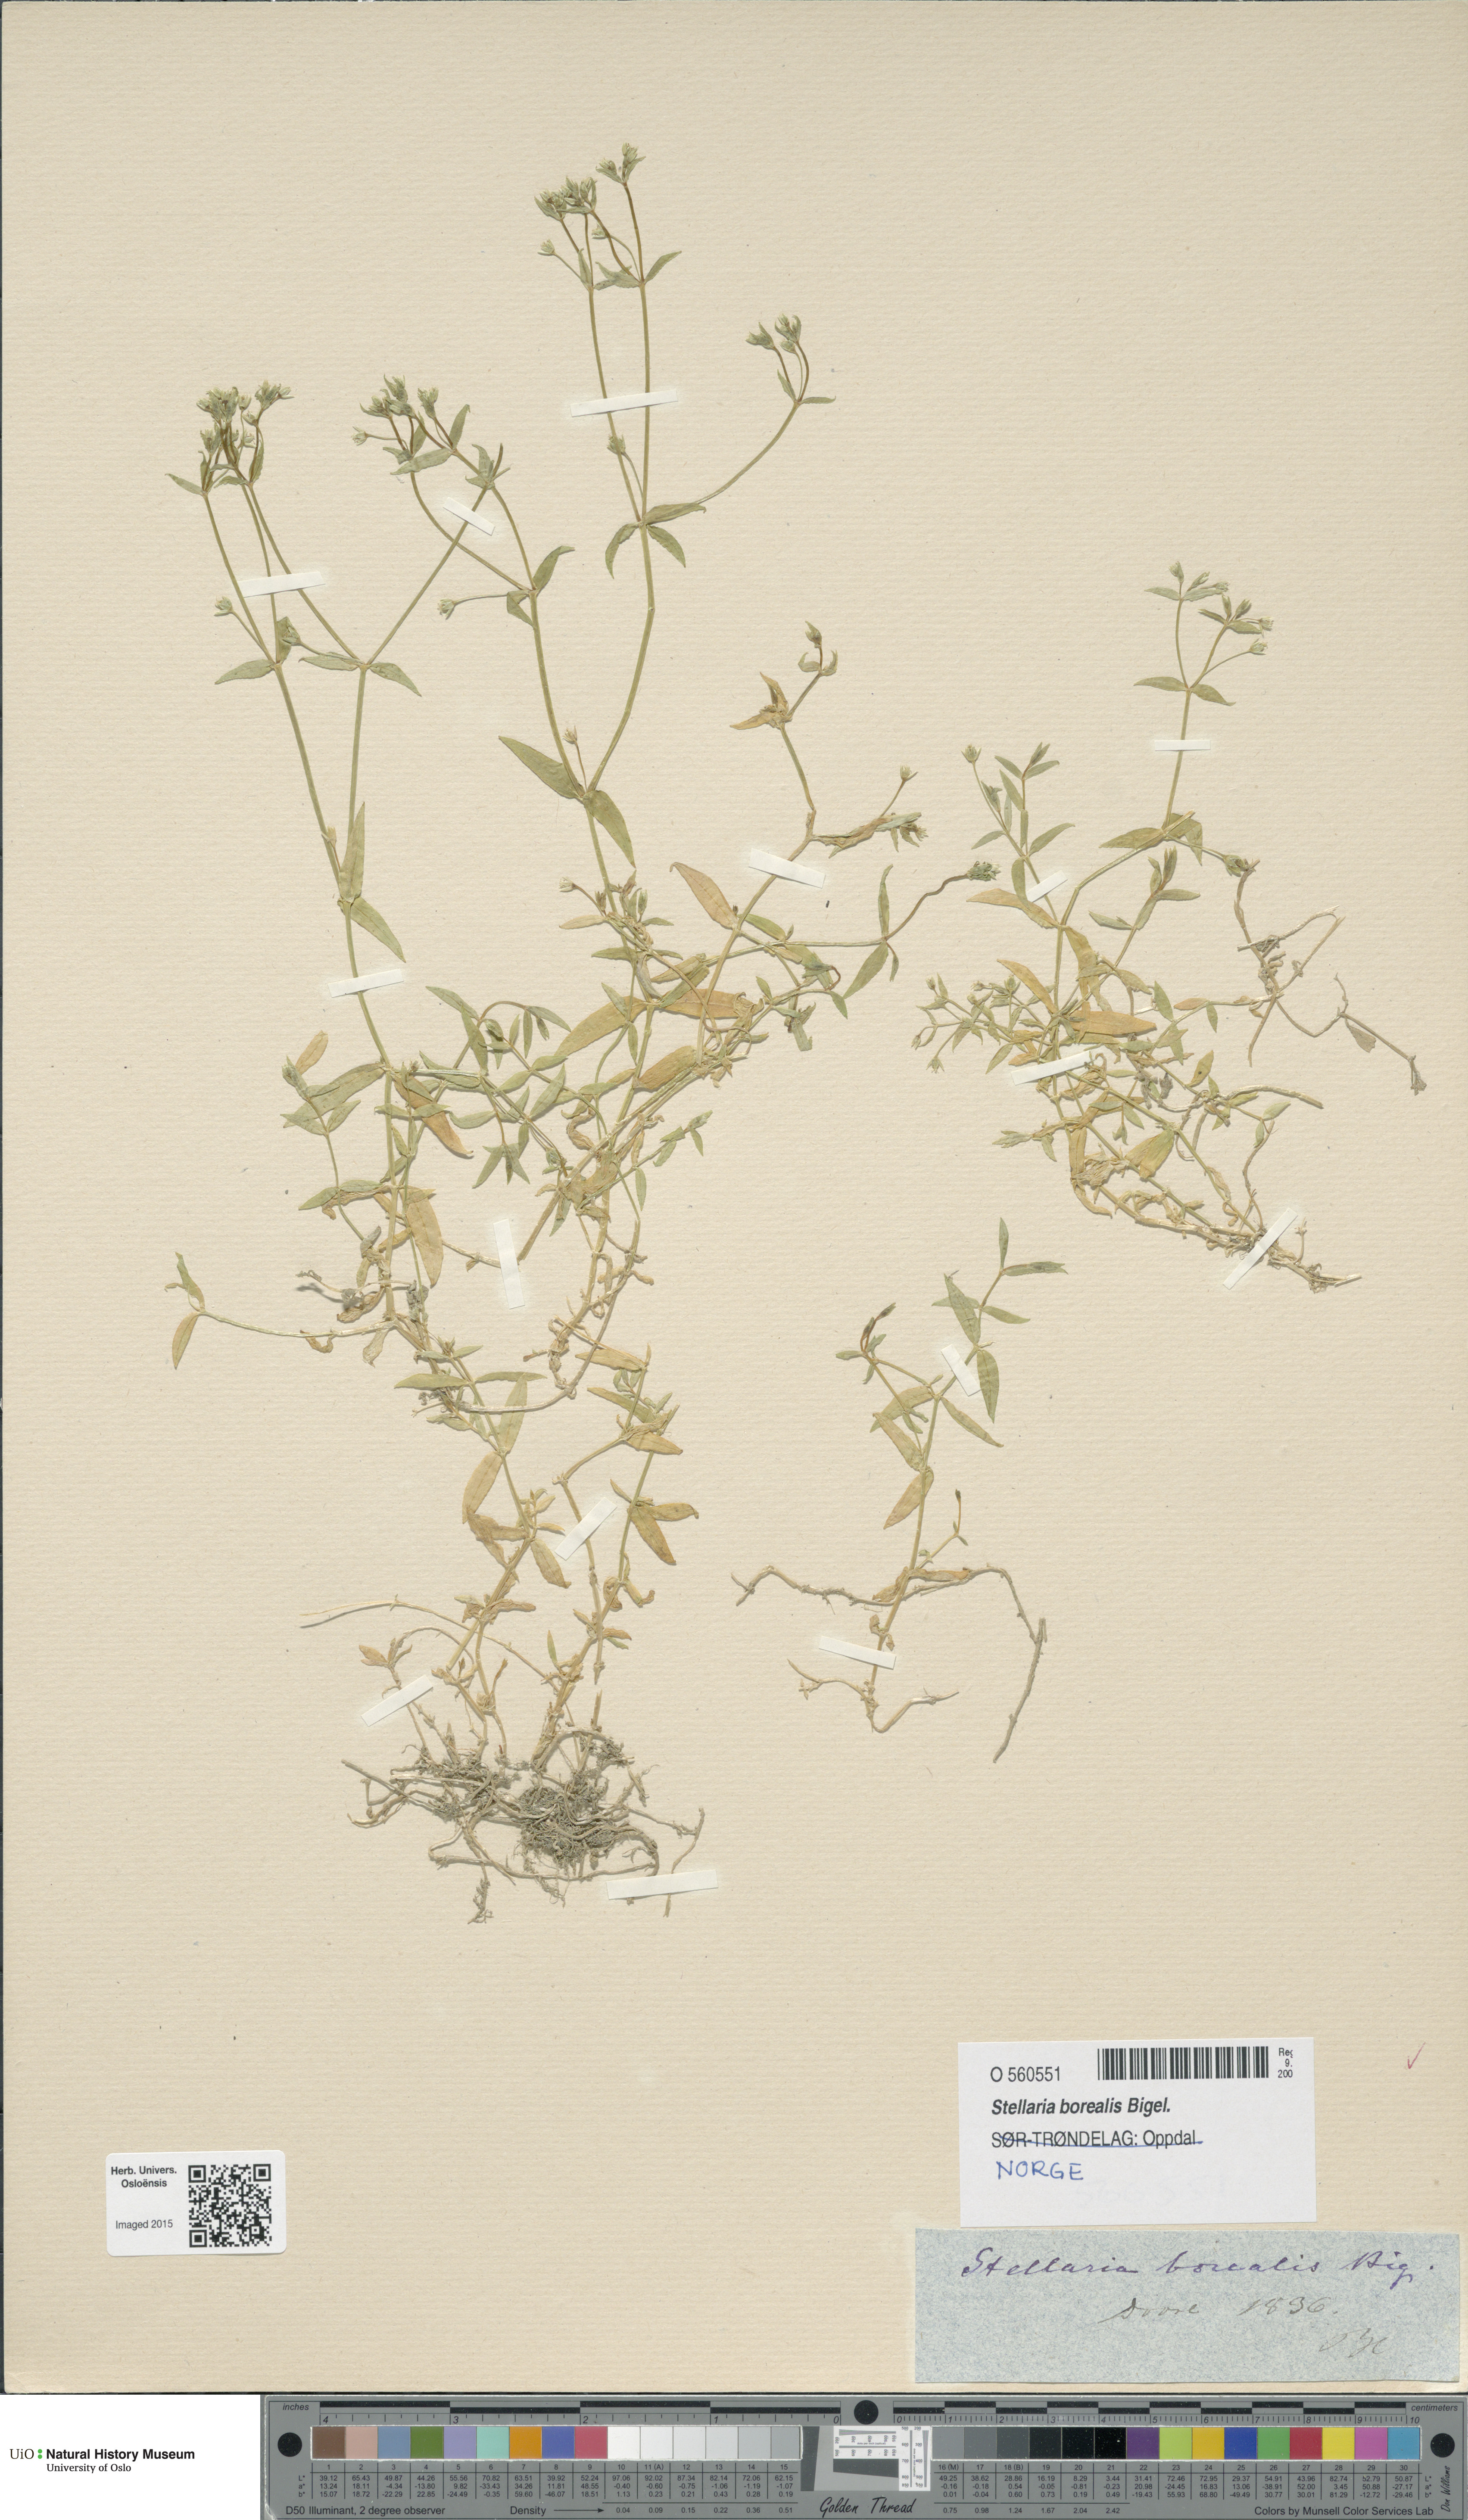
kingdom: Plantae
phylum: Tracheophyta
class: Magnoliopsida
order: Caryophyllales
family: Caryophyllaceae
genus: Stellaria
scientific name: Stellaria borealis
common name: Boreal starwort
